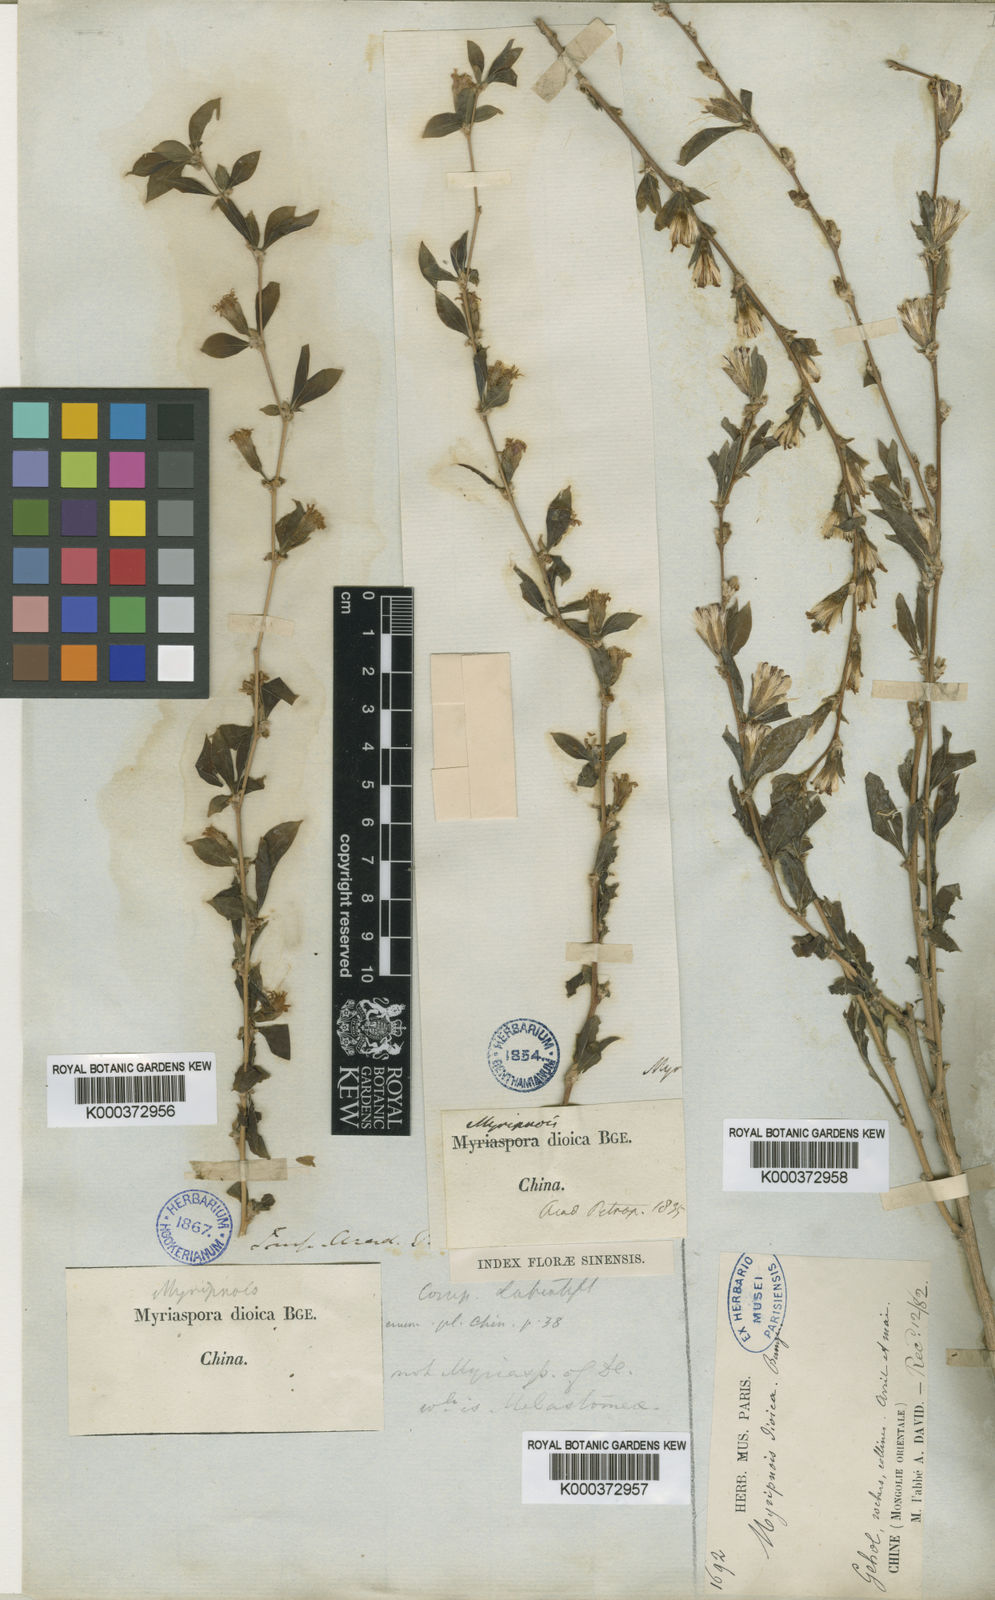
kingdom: Plantae
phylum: Tracheophyta
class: Magnoliopsida
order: Asterales
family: Asteraceae
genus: Pertya
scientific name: Pertya dioica
